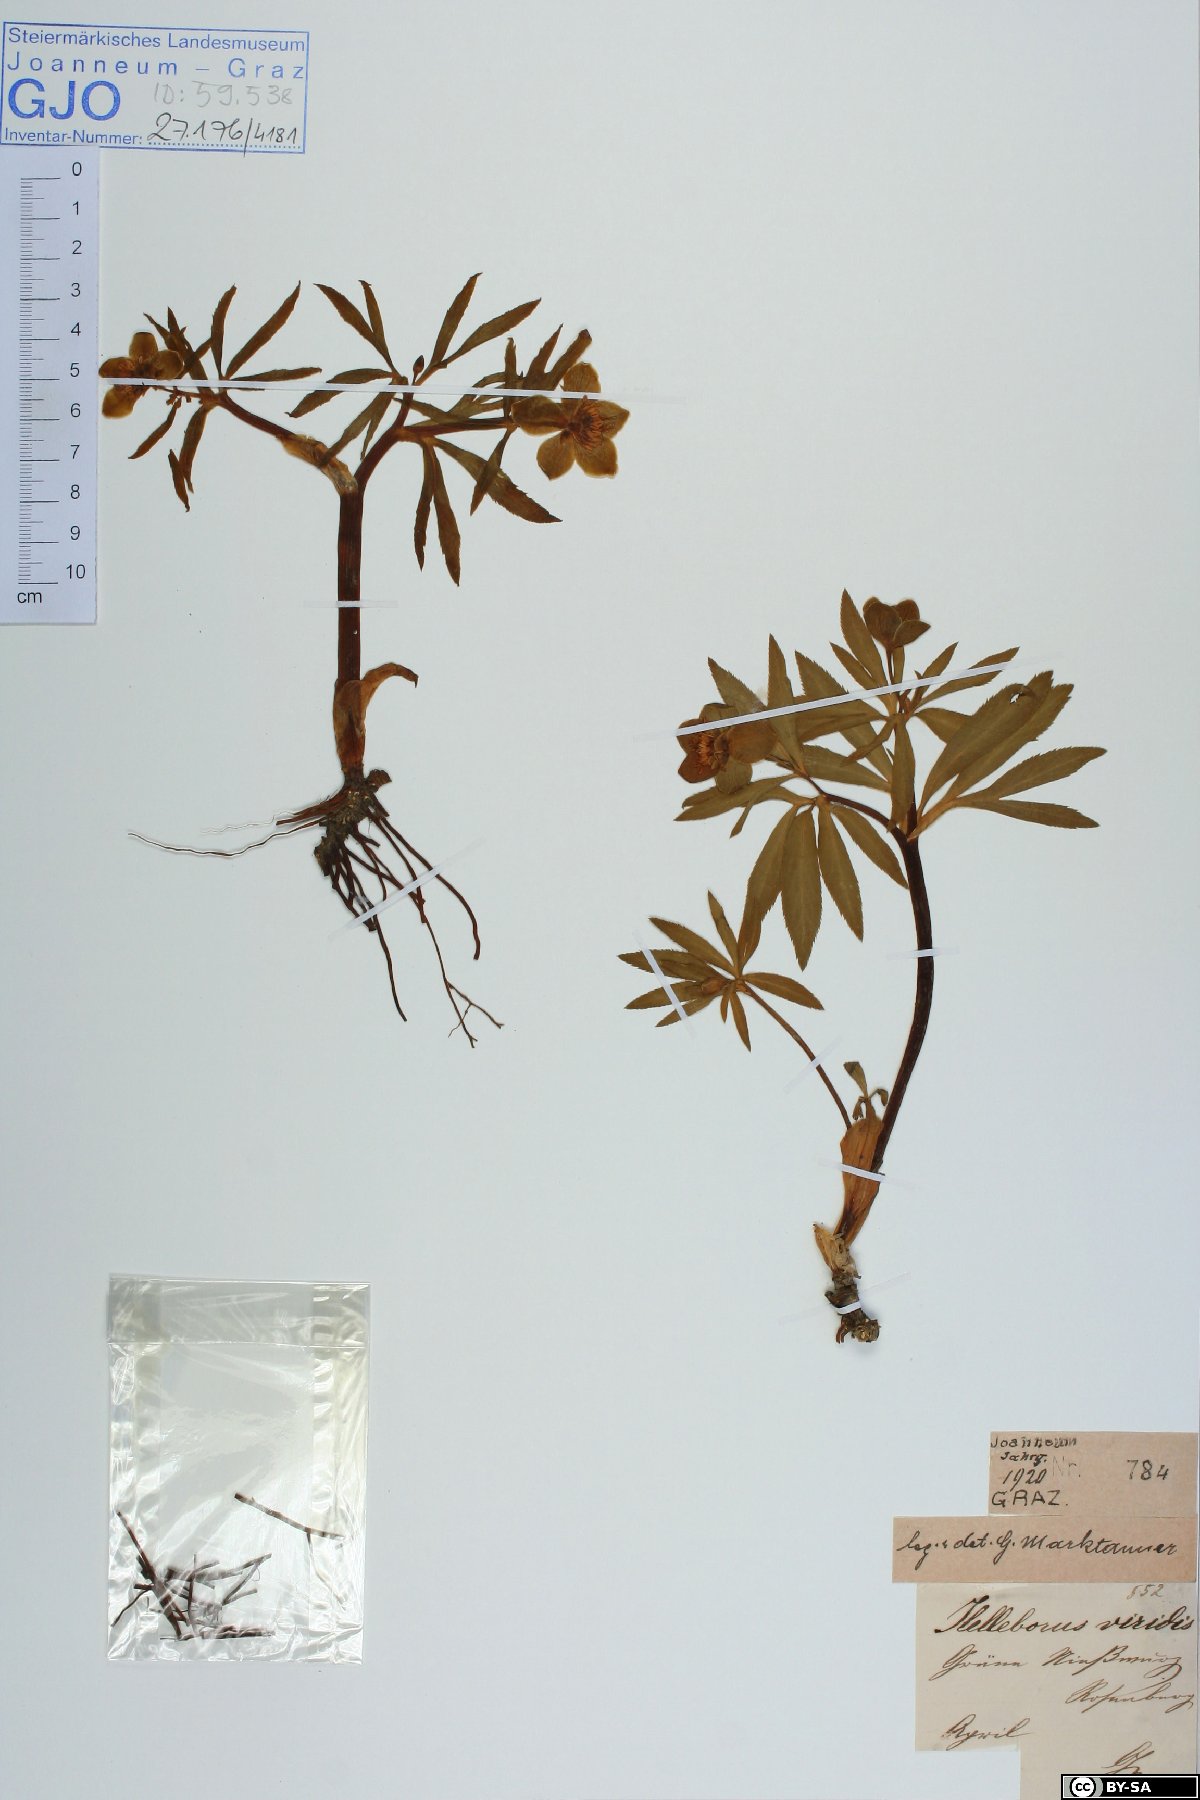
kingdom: Plantae
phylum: Tracheophyta
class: Magnoliopsida
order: Ranunculales
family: Ranunculaceae
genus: Helleborus
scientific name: Helleborus dumetorum
